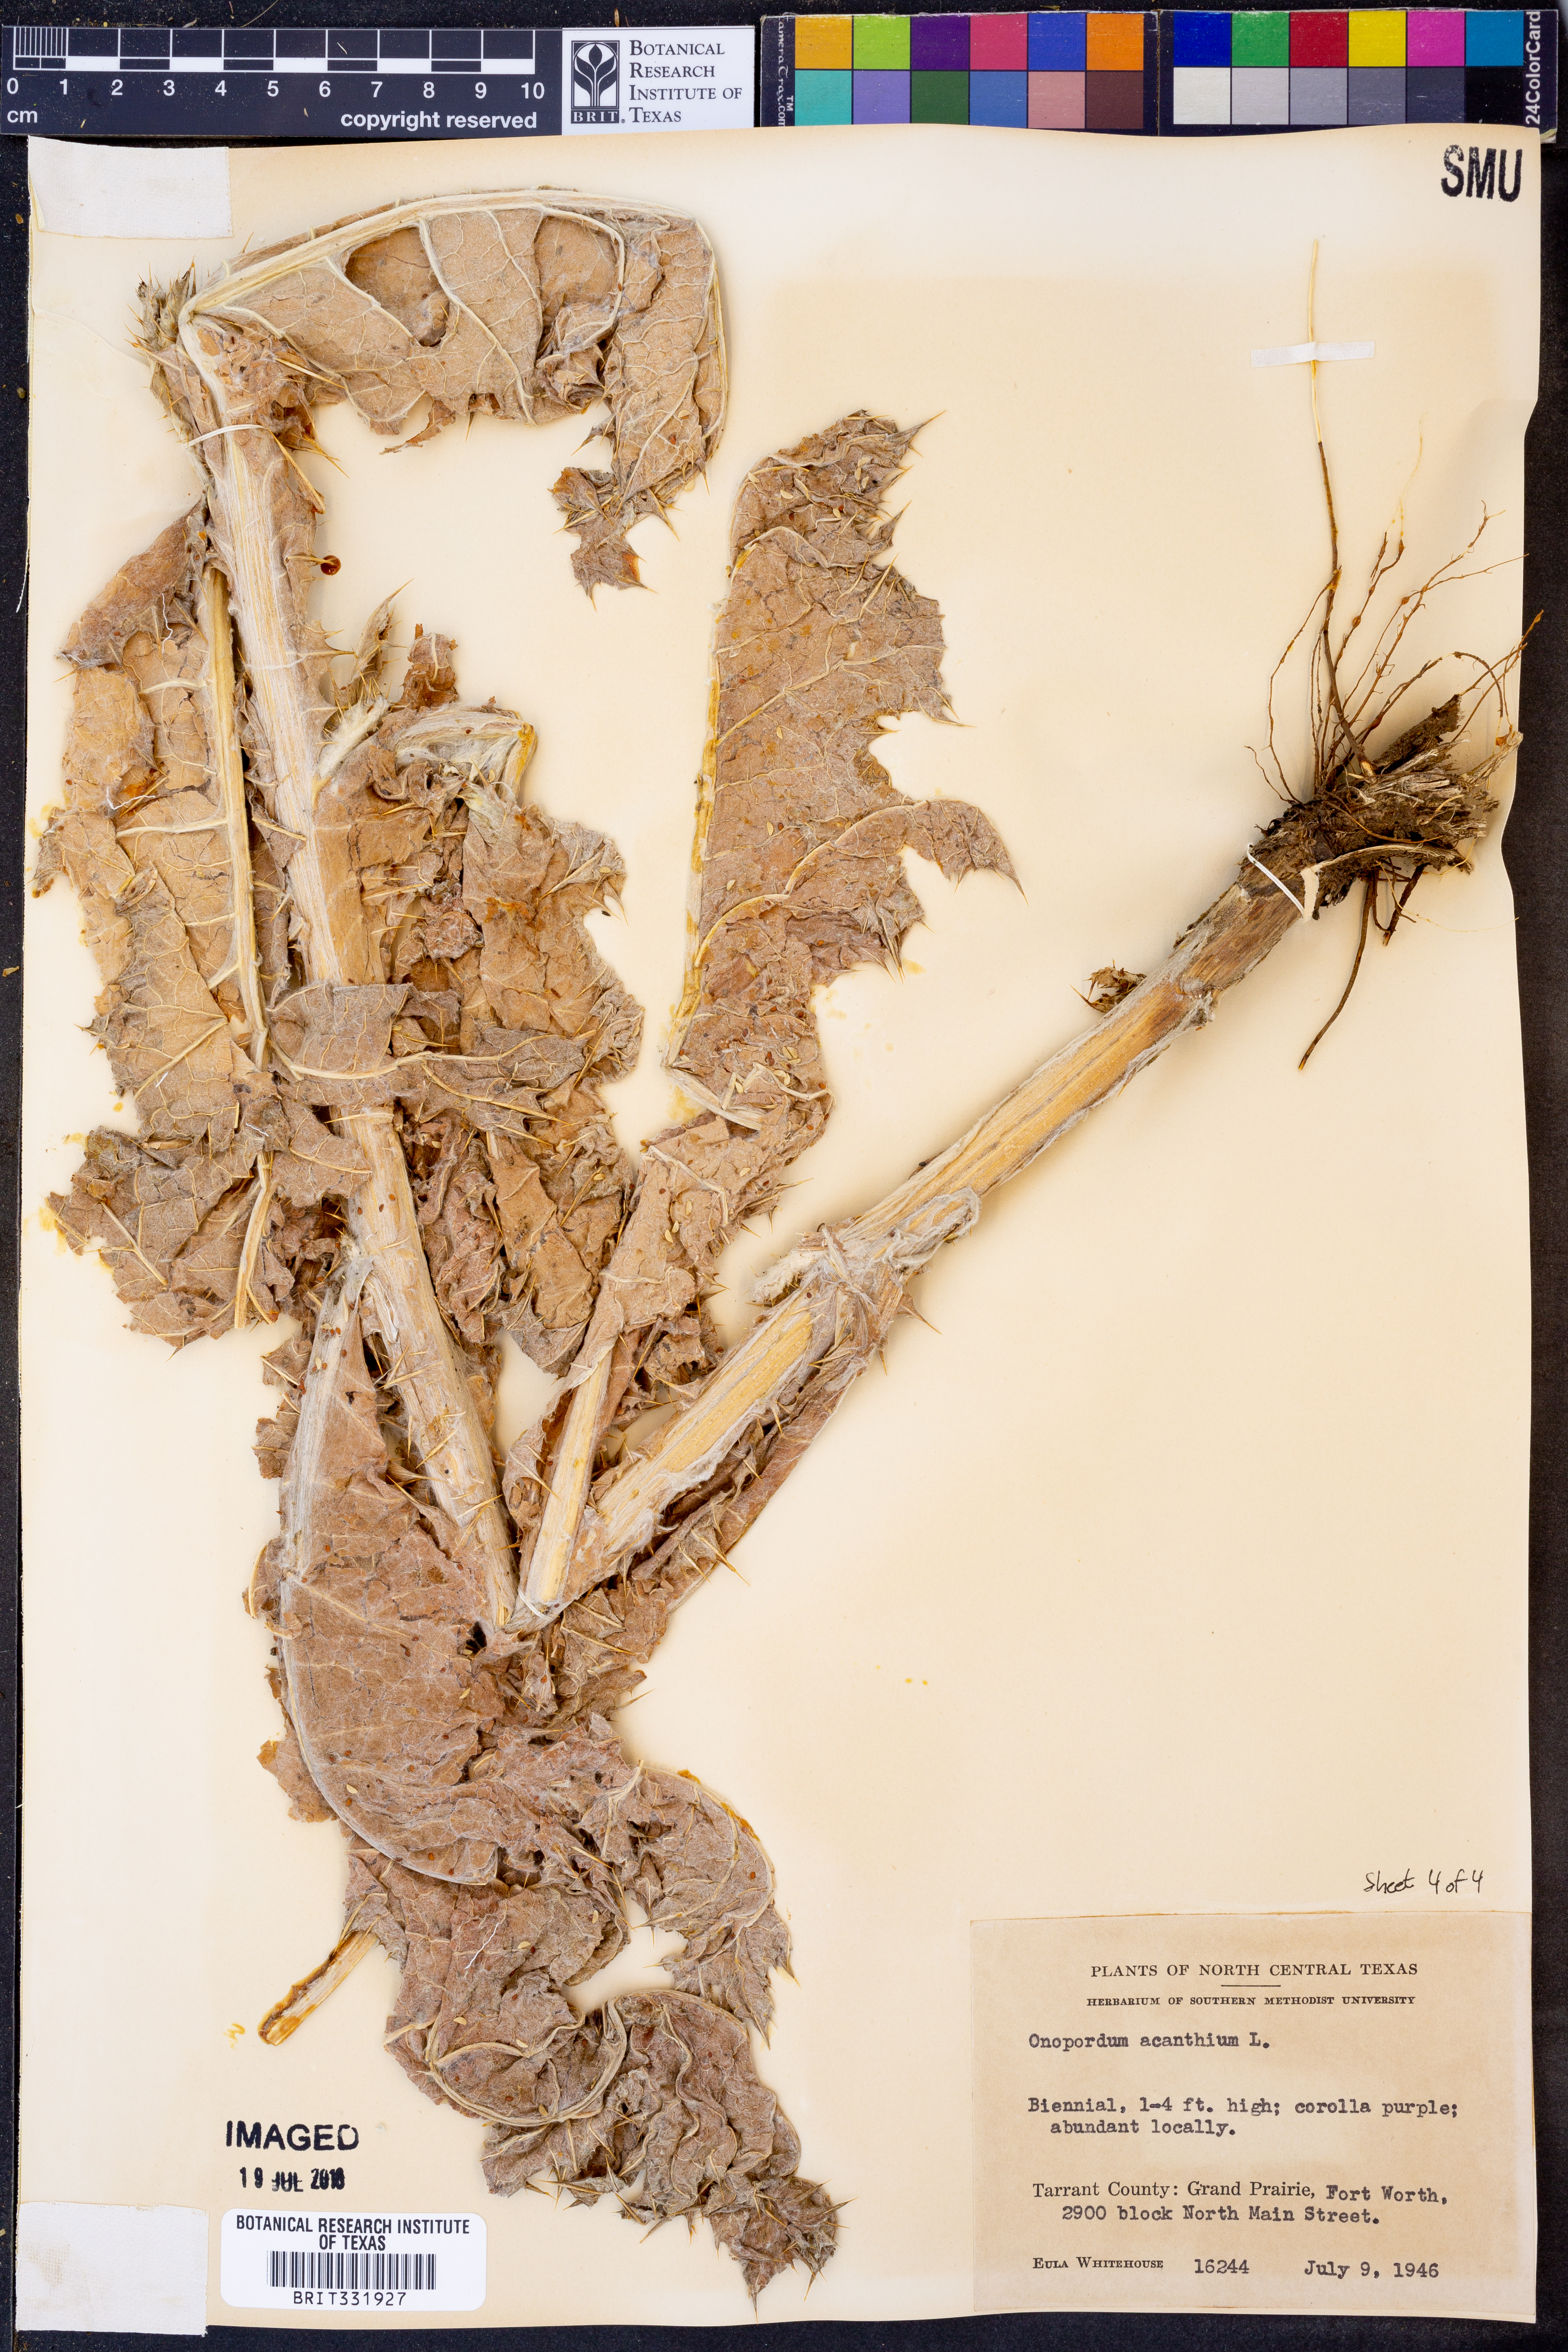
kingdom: Plantae
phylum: Tracheophyta
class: Magnoliopsida
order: Asterales
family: Asteraceae
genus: Onopordum
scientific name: Onopordum acanthium
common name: Scotch thistle
